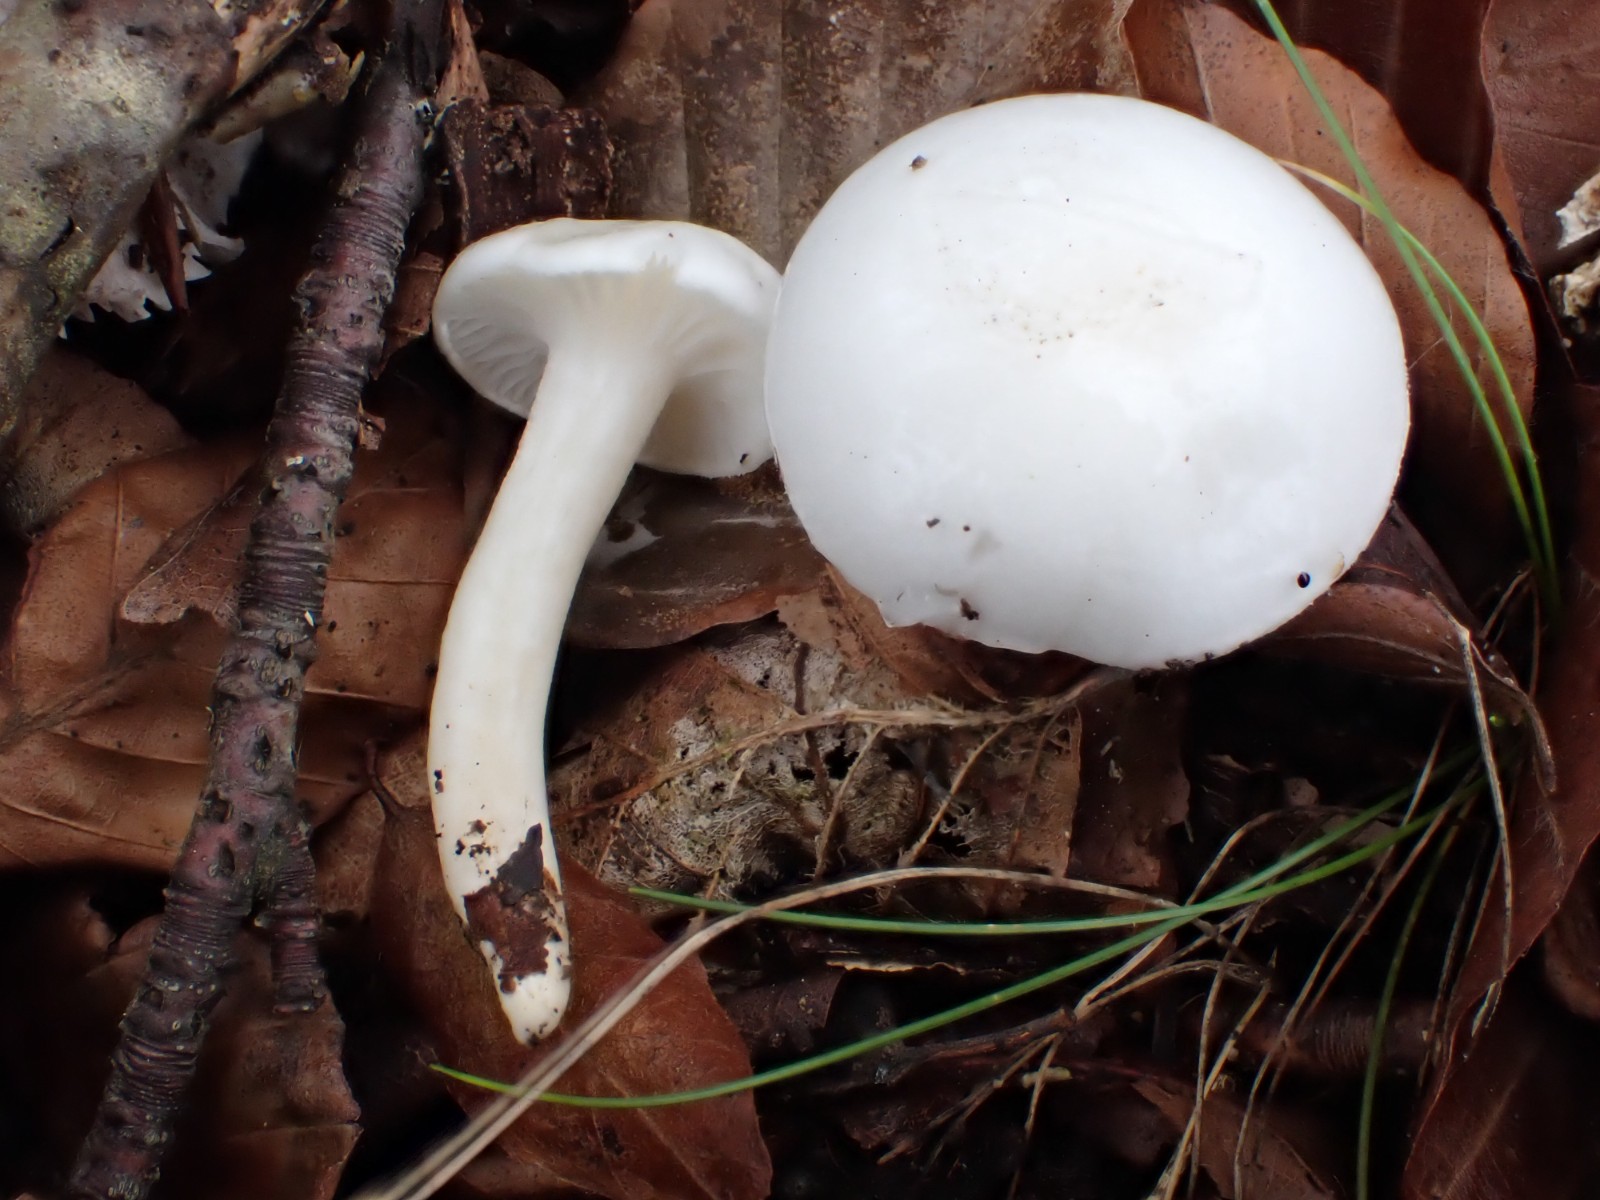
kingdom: Fungi
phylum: Basidiomycota
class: Agaricomycetes
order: Agaricales
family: Hygrophoraceae
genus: Hygrophorus
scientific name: Hygrophorus eburneus
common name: elfenbens-sneglehat
